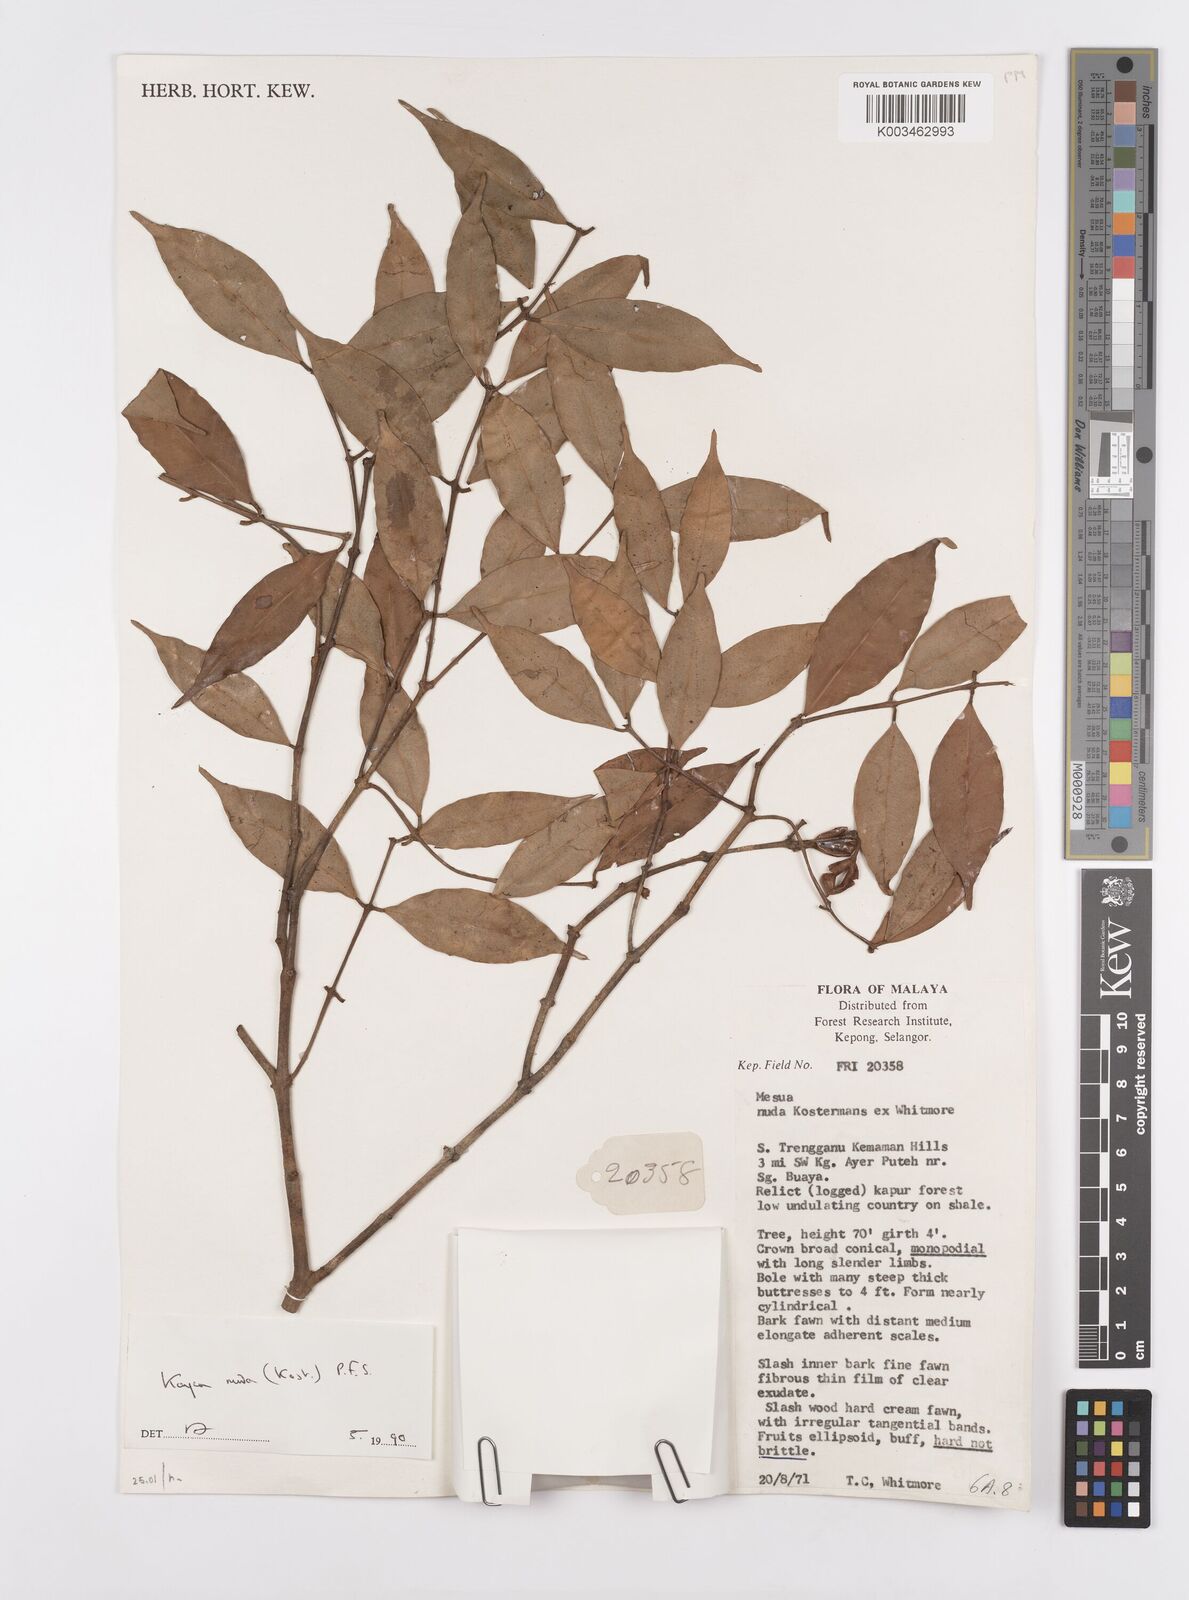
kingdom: Plantae
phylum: Tracheophyta
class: Magnoliopsida
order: Malpighiales
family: Calophyllaceae
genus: Kayea
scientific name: Kayea
